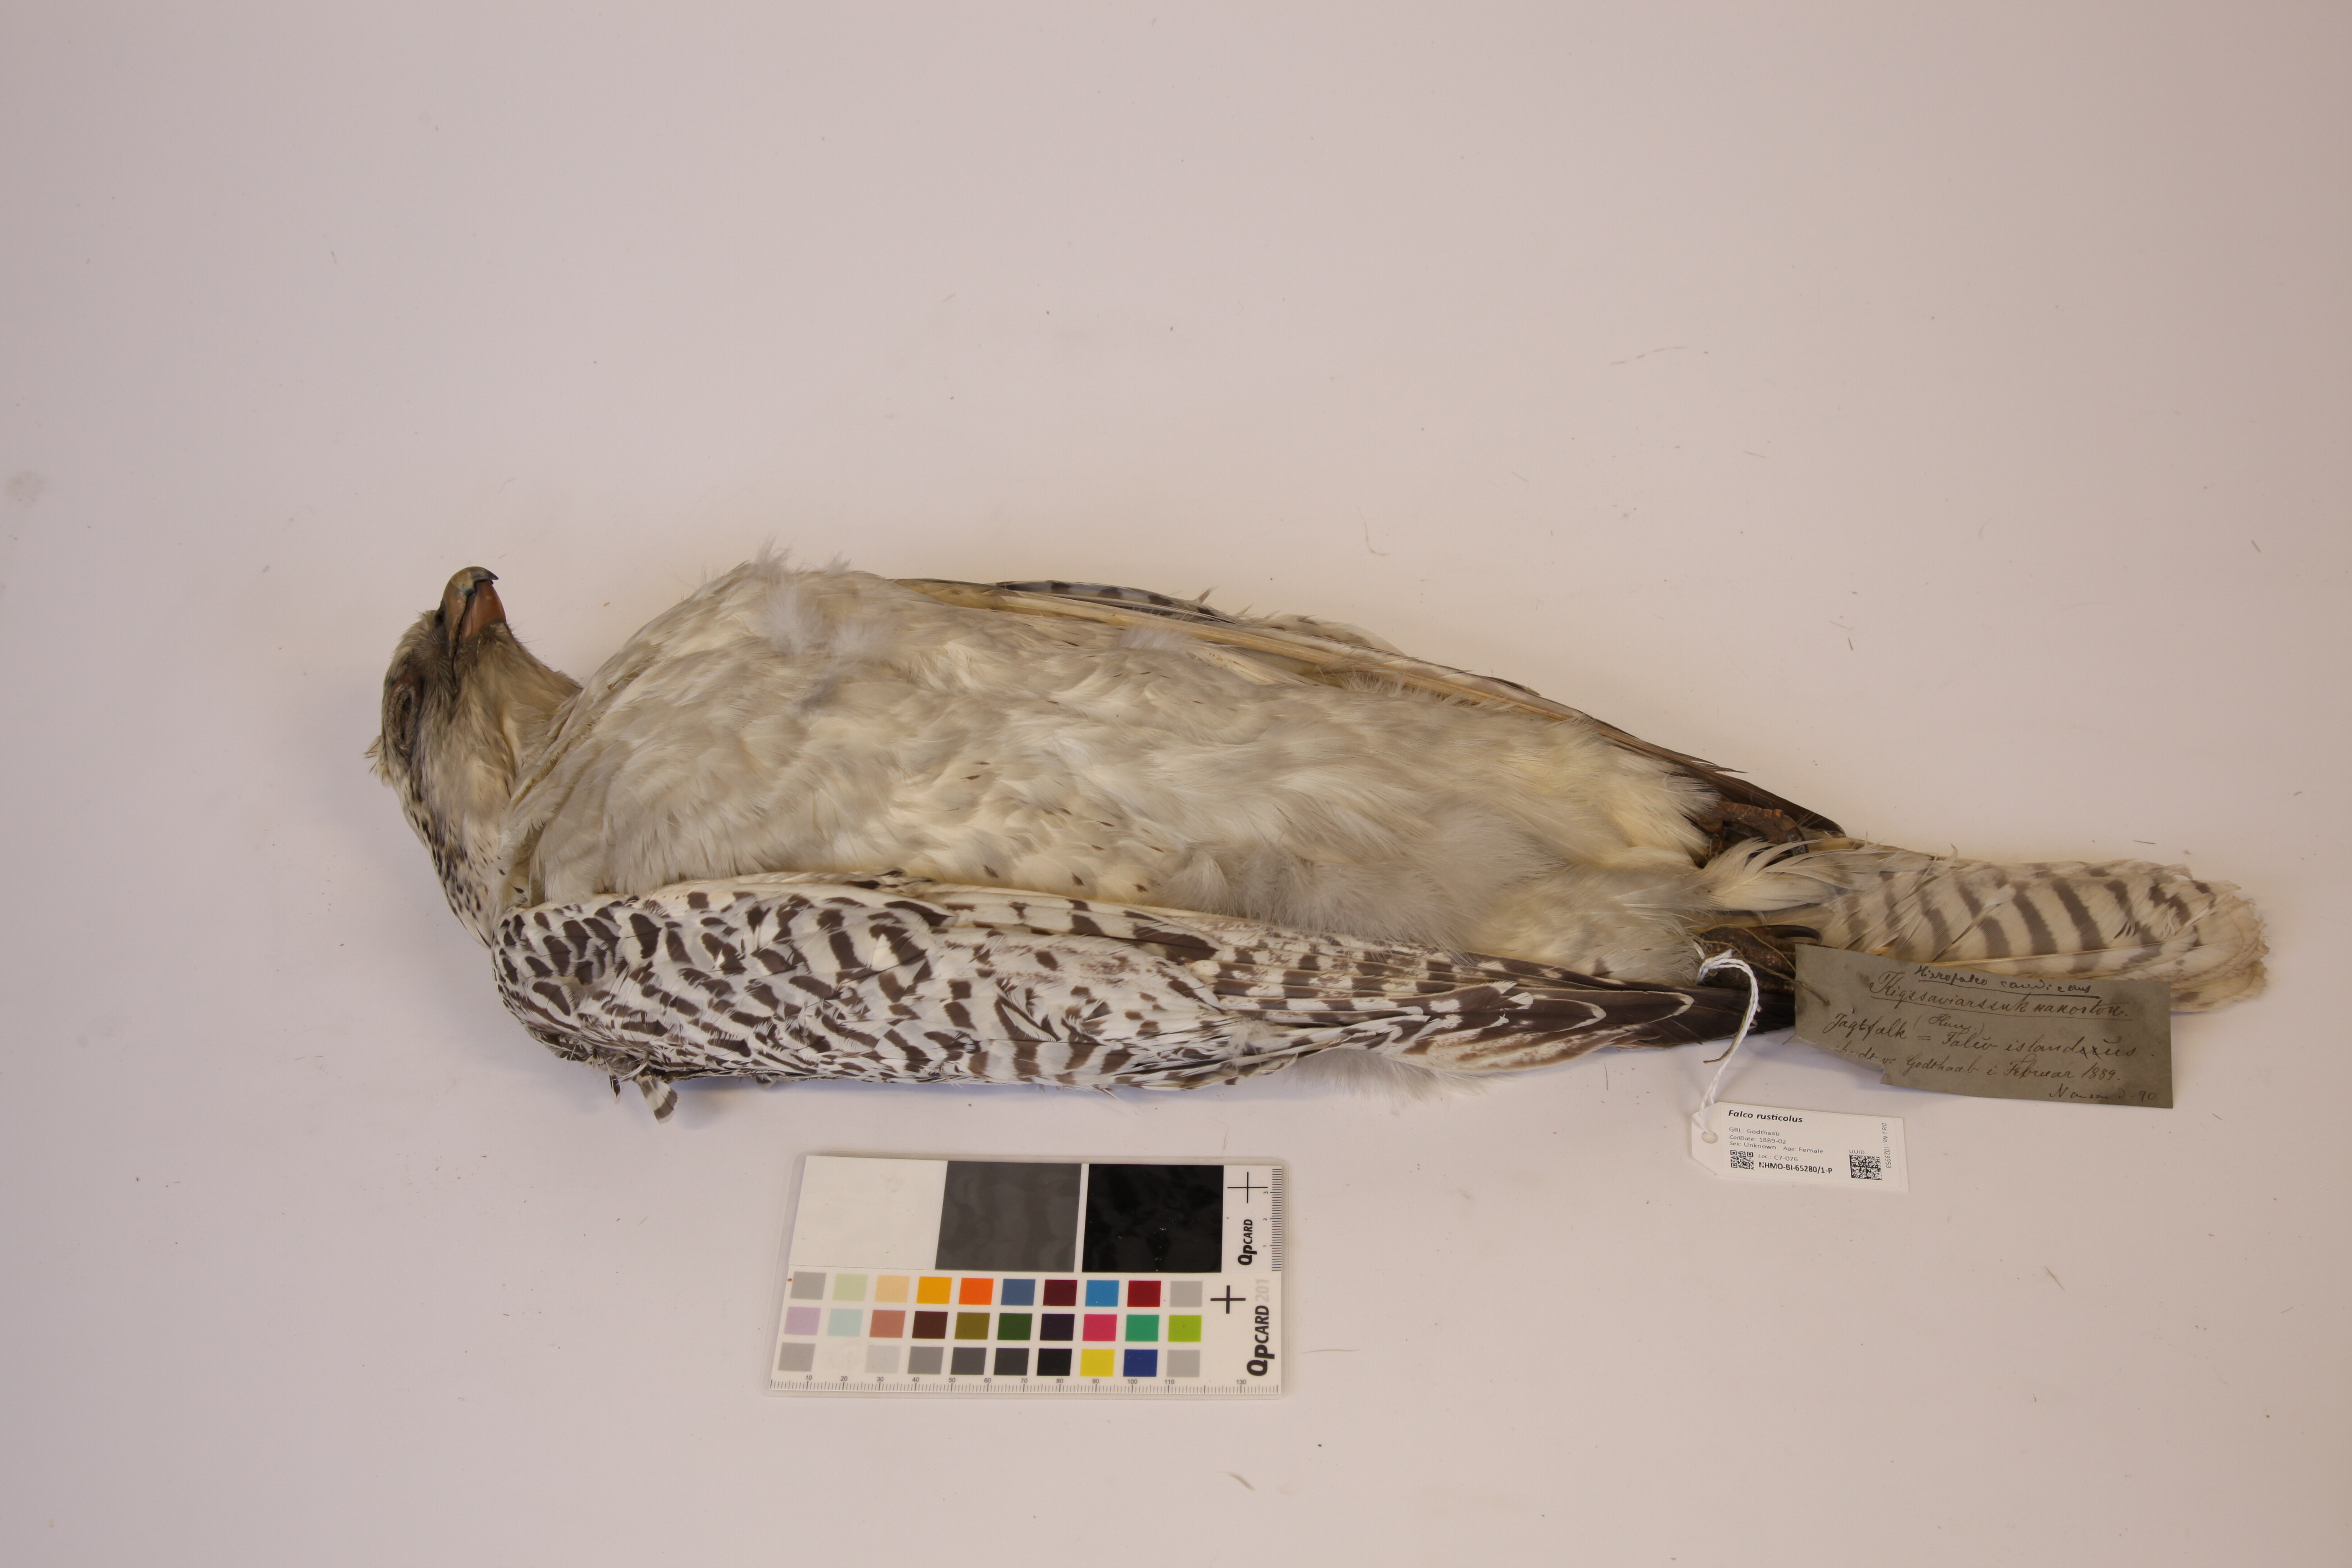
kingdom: Animalia
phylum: Chordata
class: Aves
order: Falconiformes
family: Falconidae
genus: Falco
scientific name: Falco rusticolus
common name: Gyrfalcon
